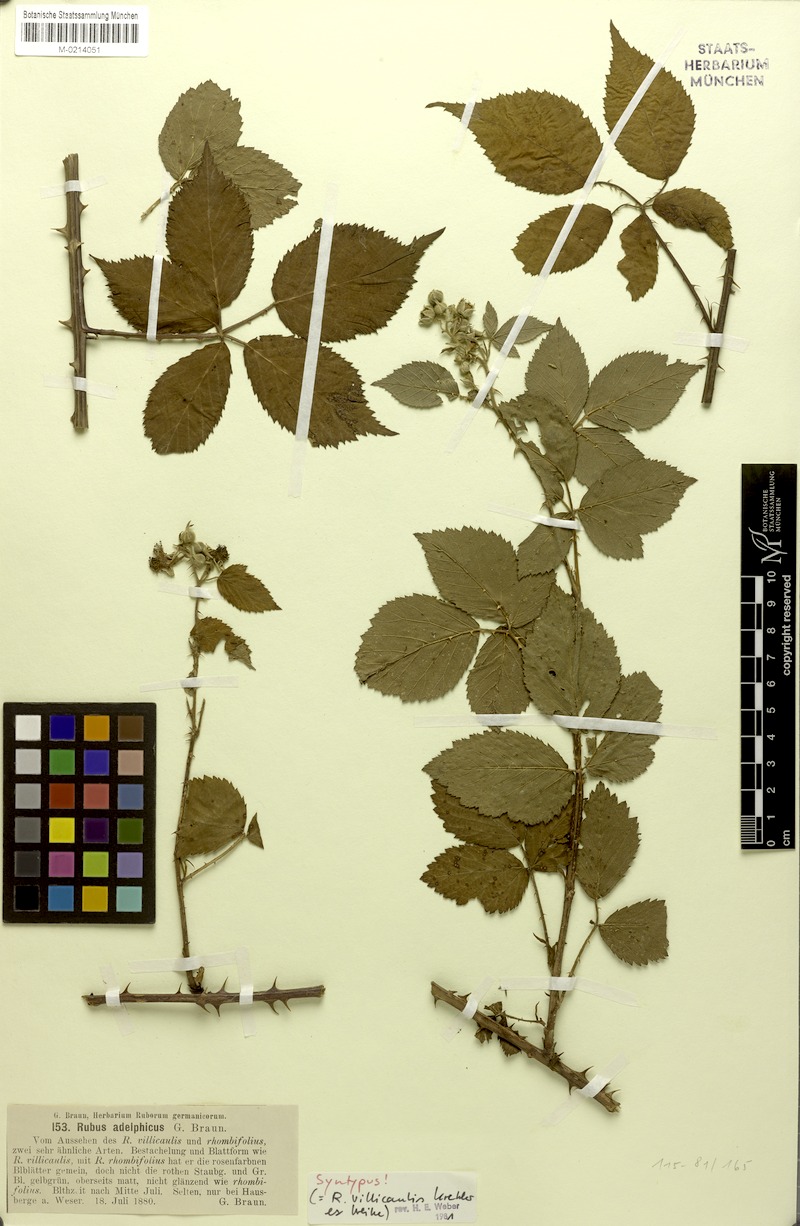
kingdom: Plantae
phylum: Tracheophyta
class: Magnoliopsida
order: Rosales
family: Rosaceae
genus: Rubus
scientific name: Rubus gracilis
